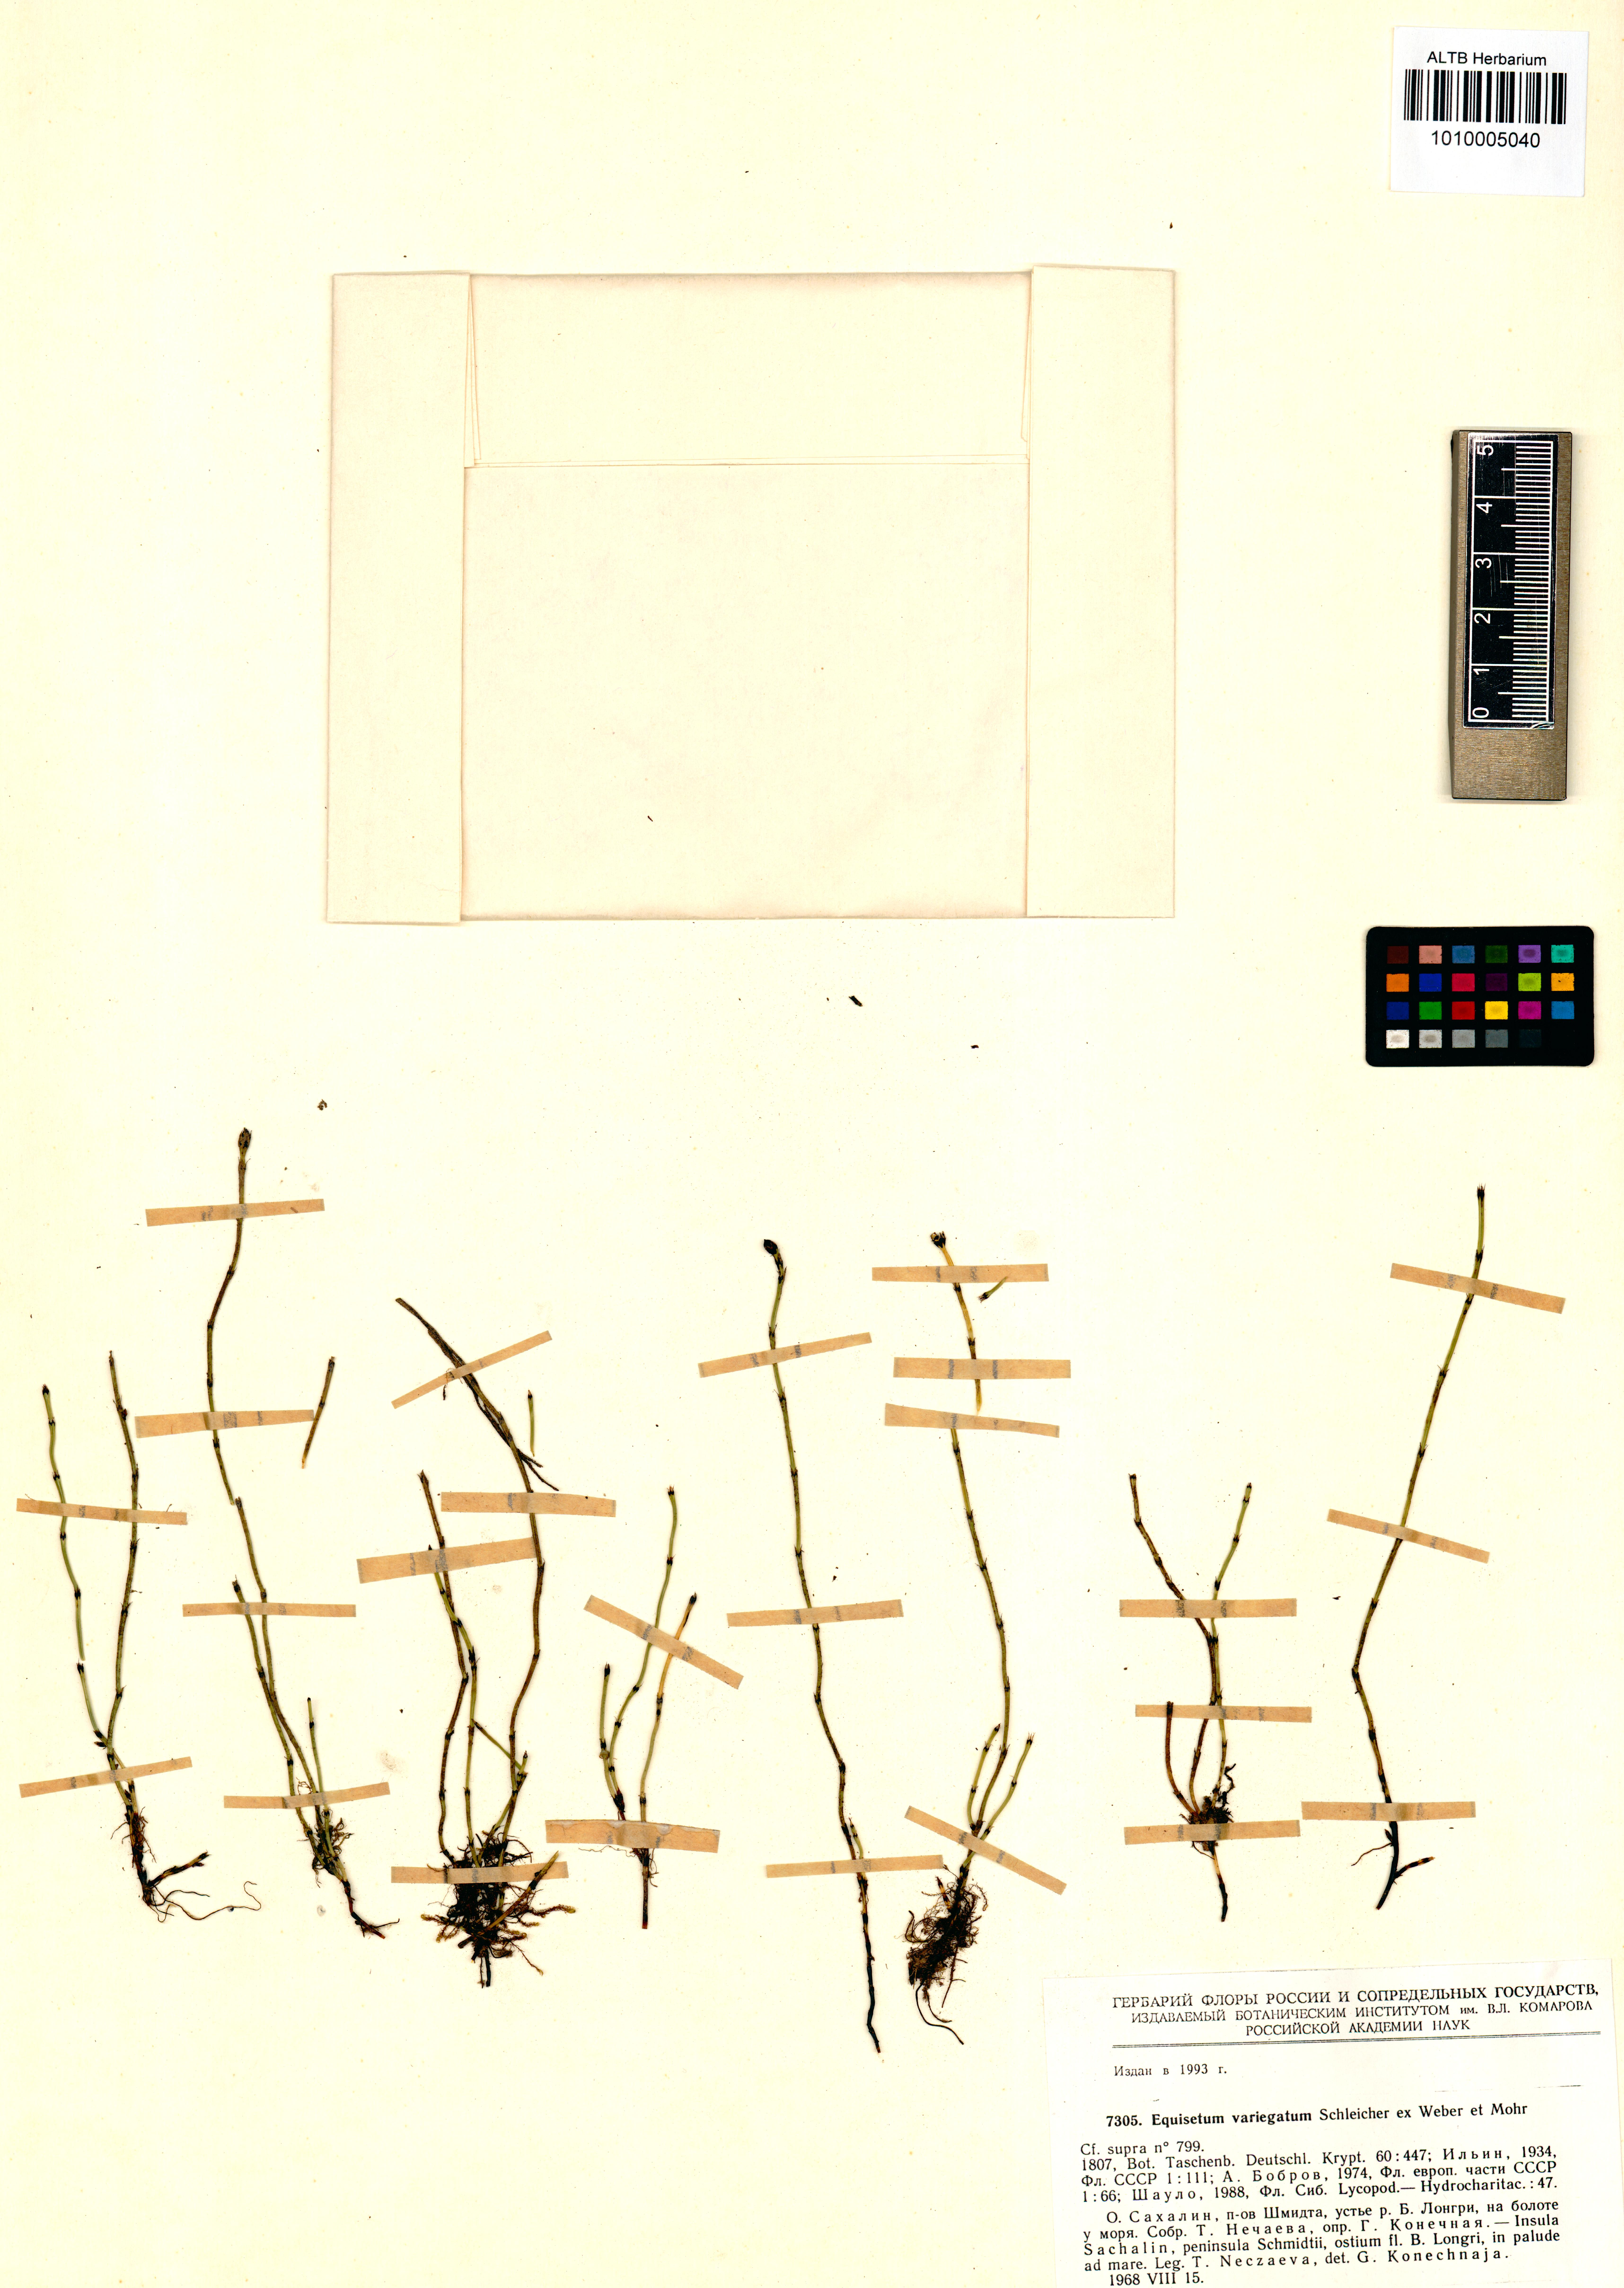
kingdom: Plantae
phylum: Tracheophyta
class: Polypodiopsida
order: Equisetales
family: Equisetaceae
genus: Equisetum
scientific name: Equisetum variegatum
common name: Variegated horsetail
